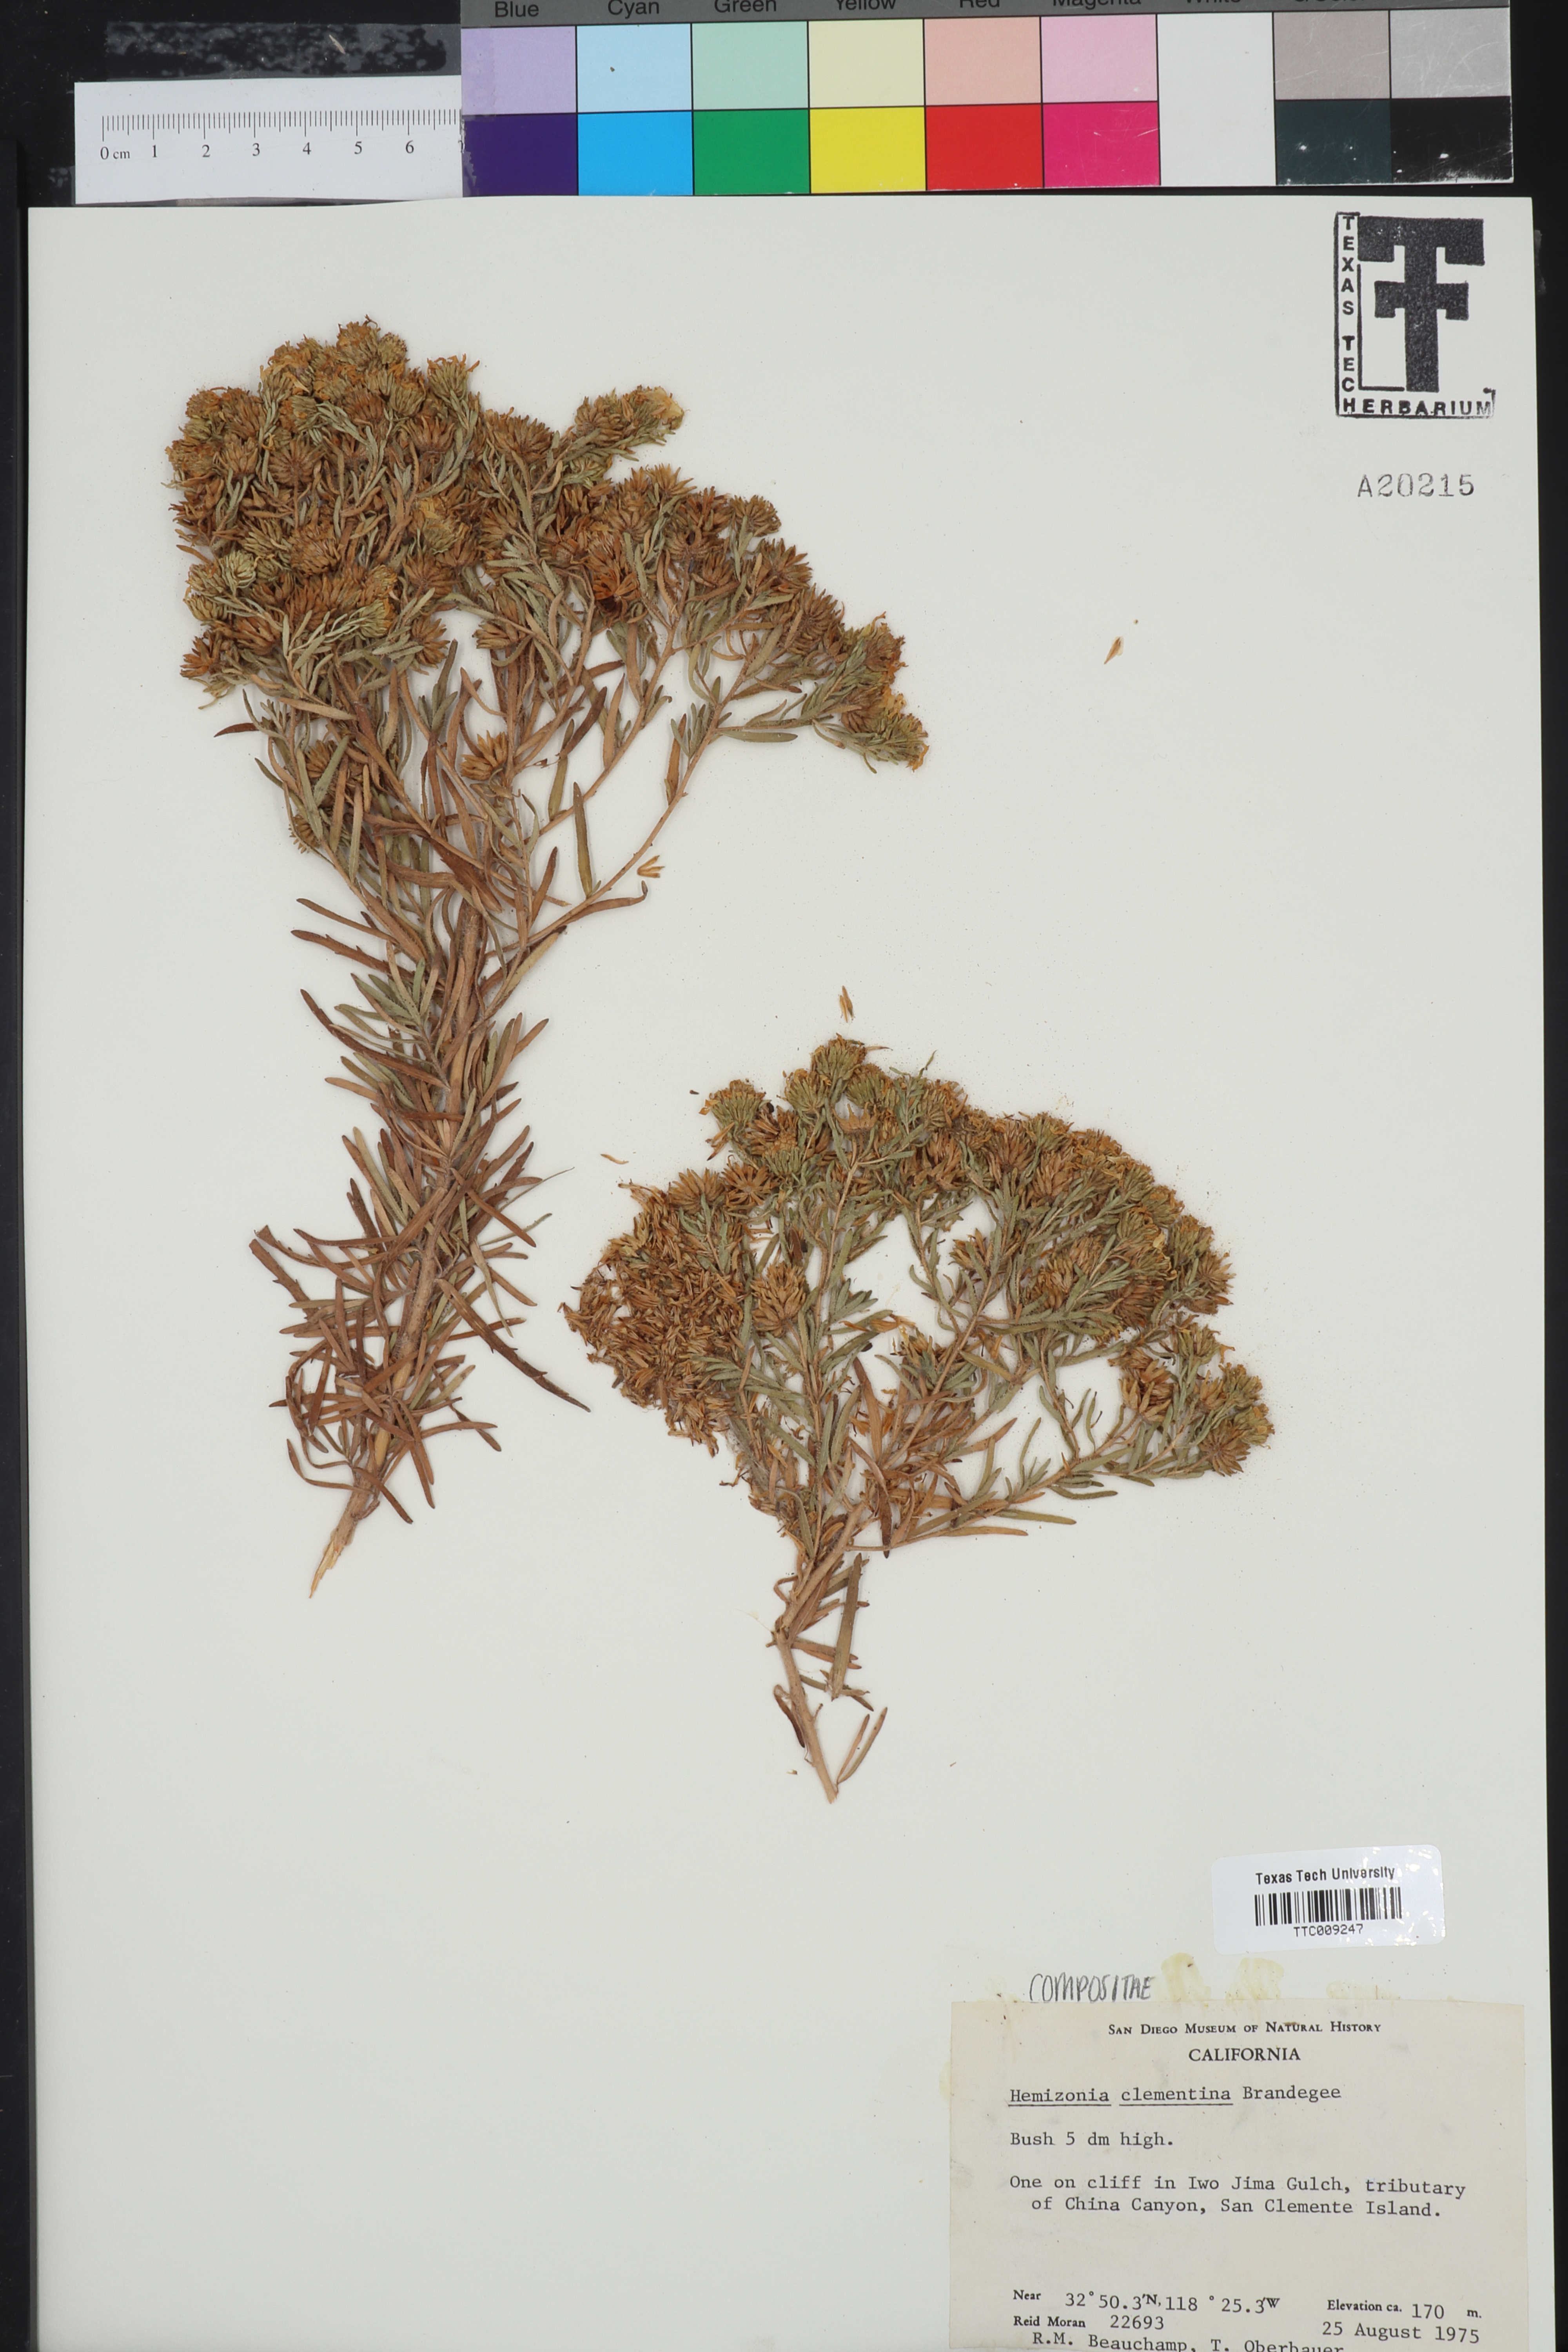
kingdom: Plantae
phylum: Tracheophyta
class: Magnoliopsida
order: Asterales
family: Asteraceae
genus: Deinandra
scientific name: Deinandra clementina
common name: Island tarplant
